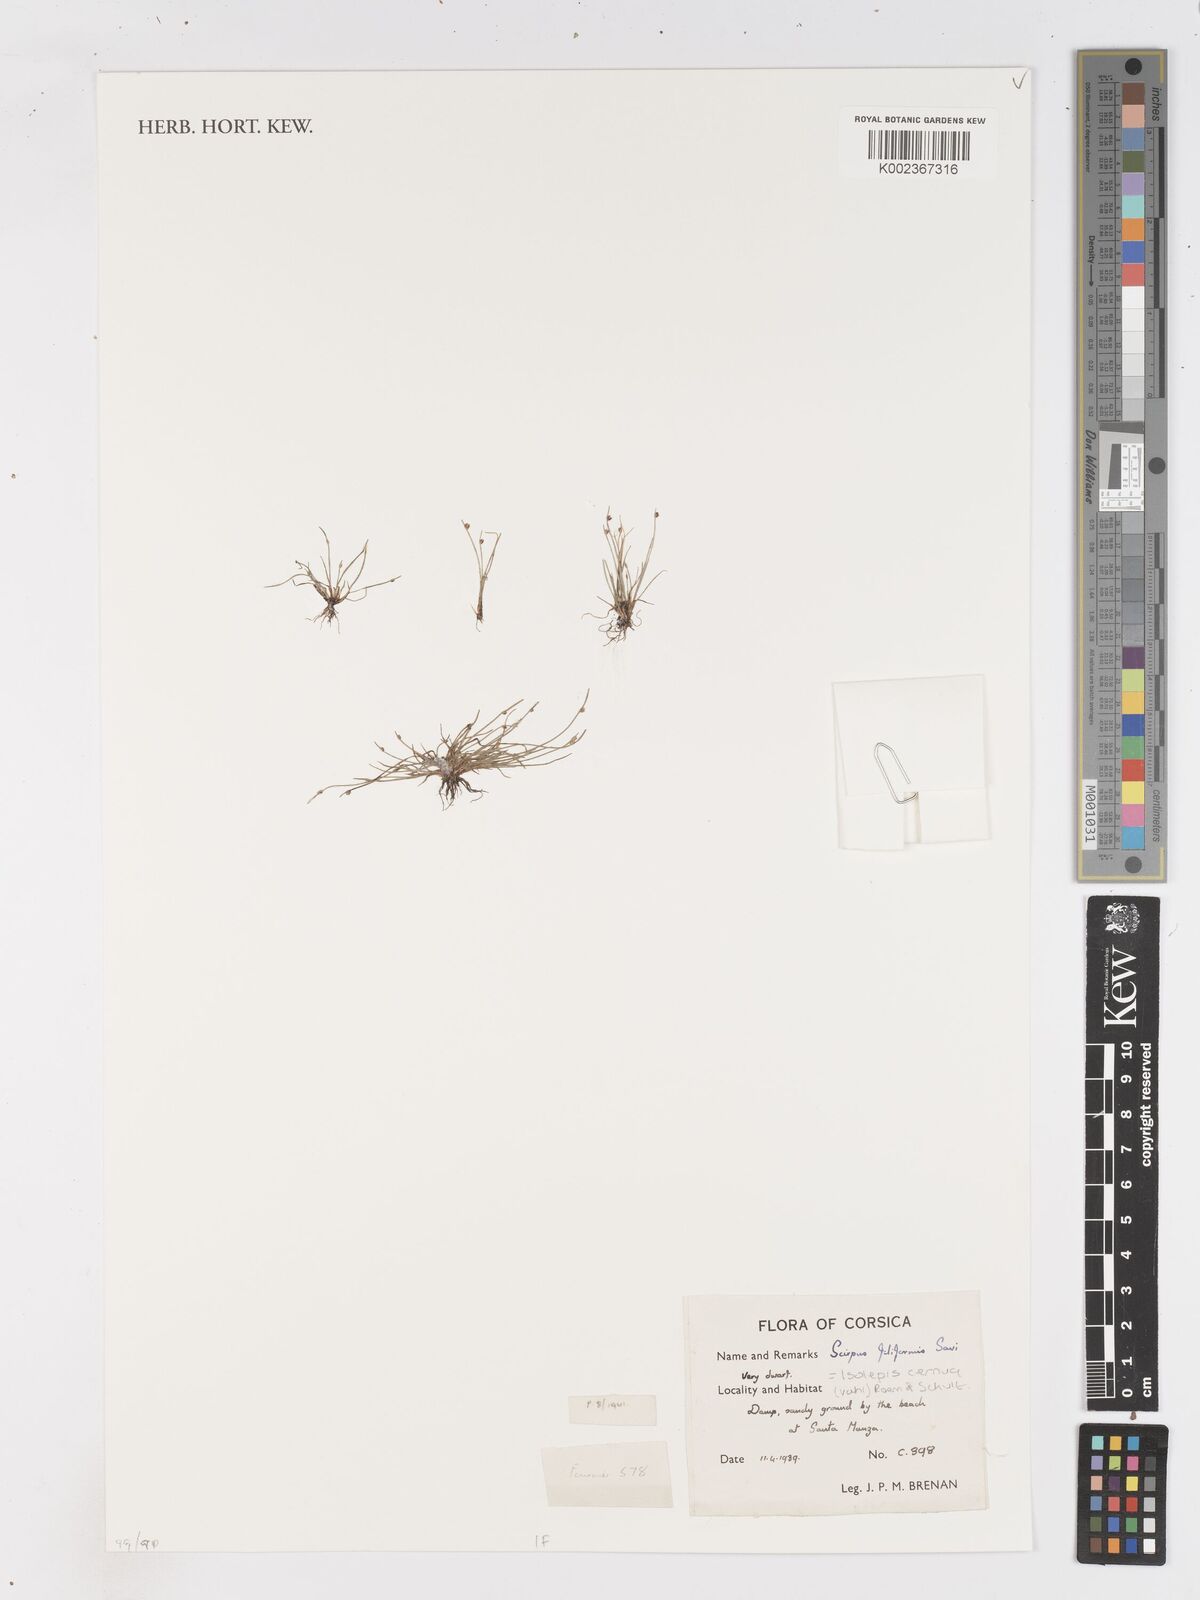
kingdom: Plantae
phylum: Tracheophyta
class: Liliopsida
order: Poales
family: Cyperaceae
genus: Isolepis
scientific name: Isolepis cernua
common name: Slender club-rush
